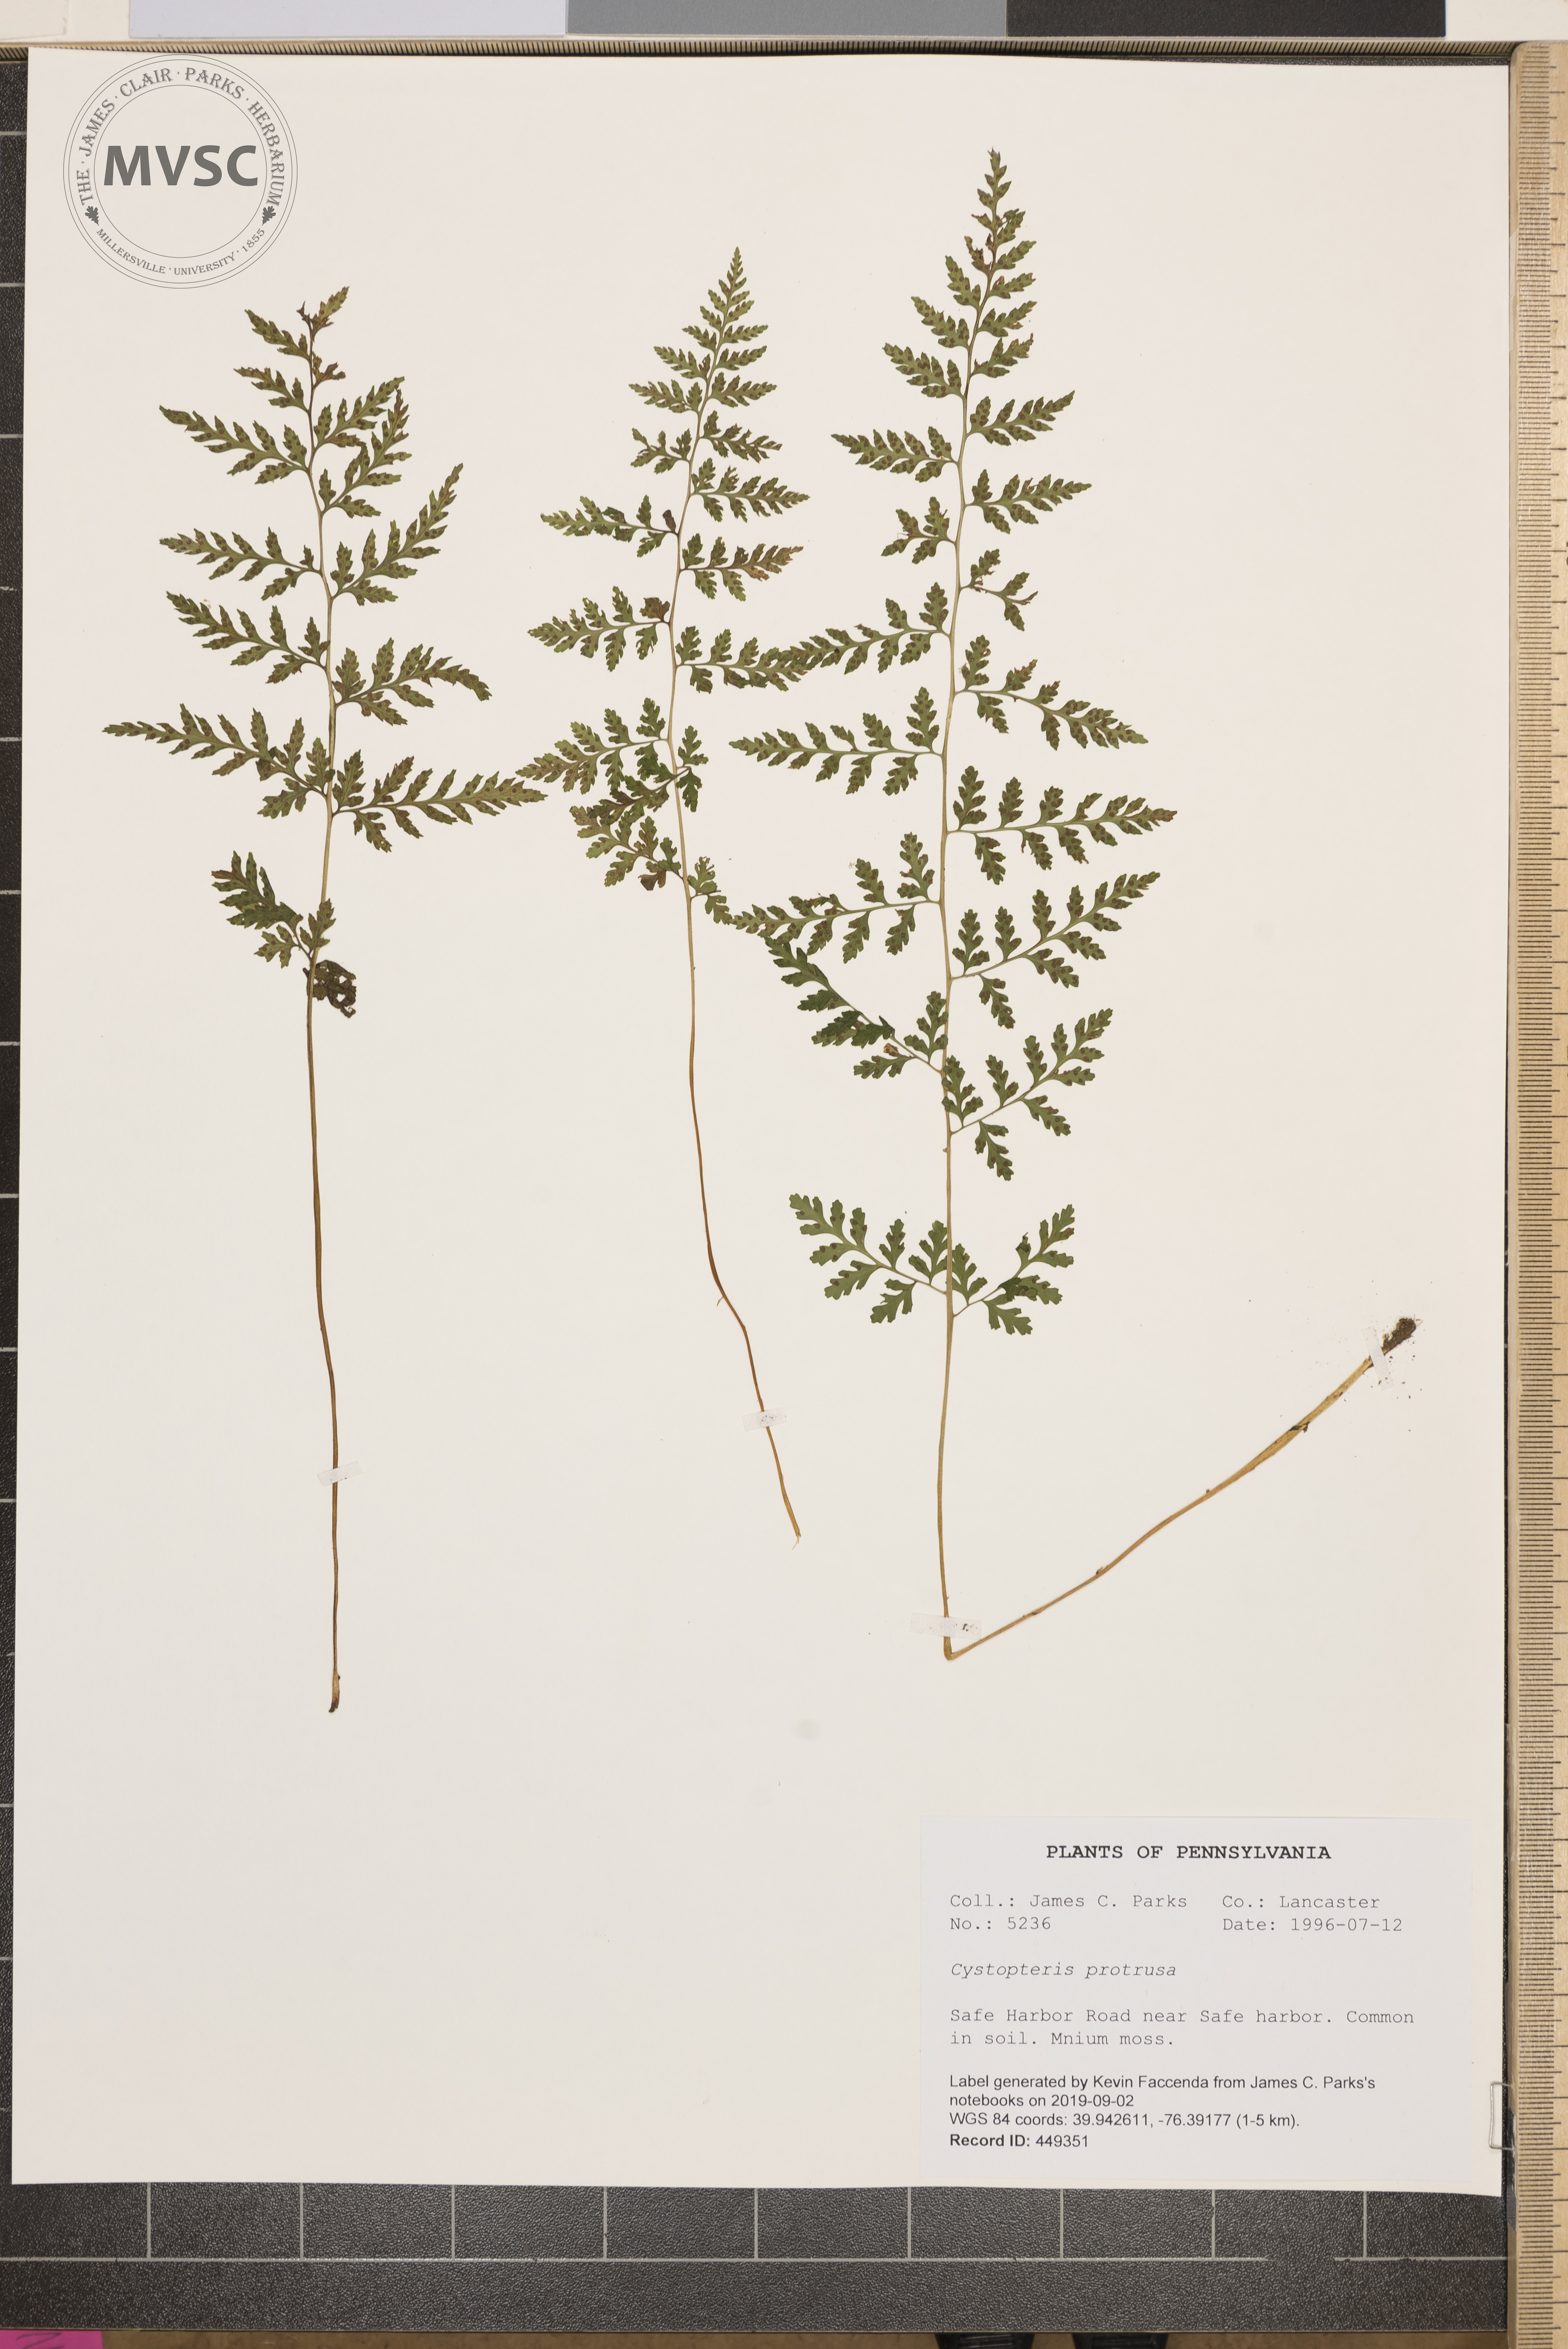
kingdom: Plantae
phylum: Tracheophyta
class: Polypodiopsida
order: Polypodiales
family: Cystopteridaceae
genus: Cystopteris
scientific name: Cystopteris protrusa
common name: Lowland brittle fern
